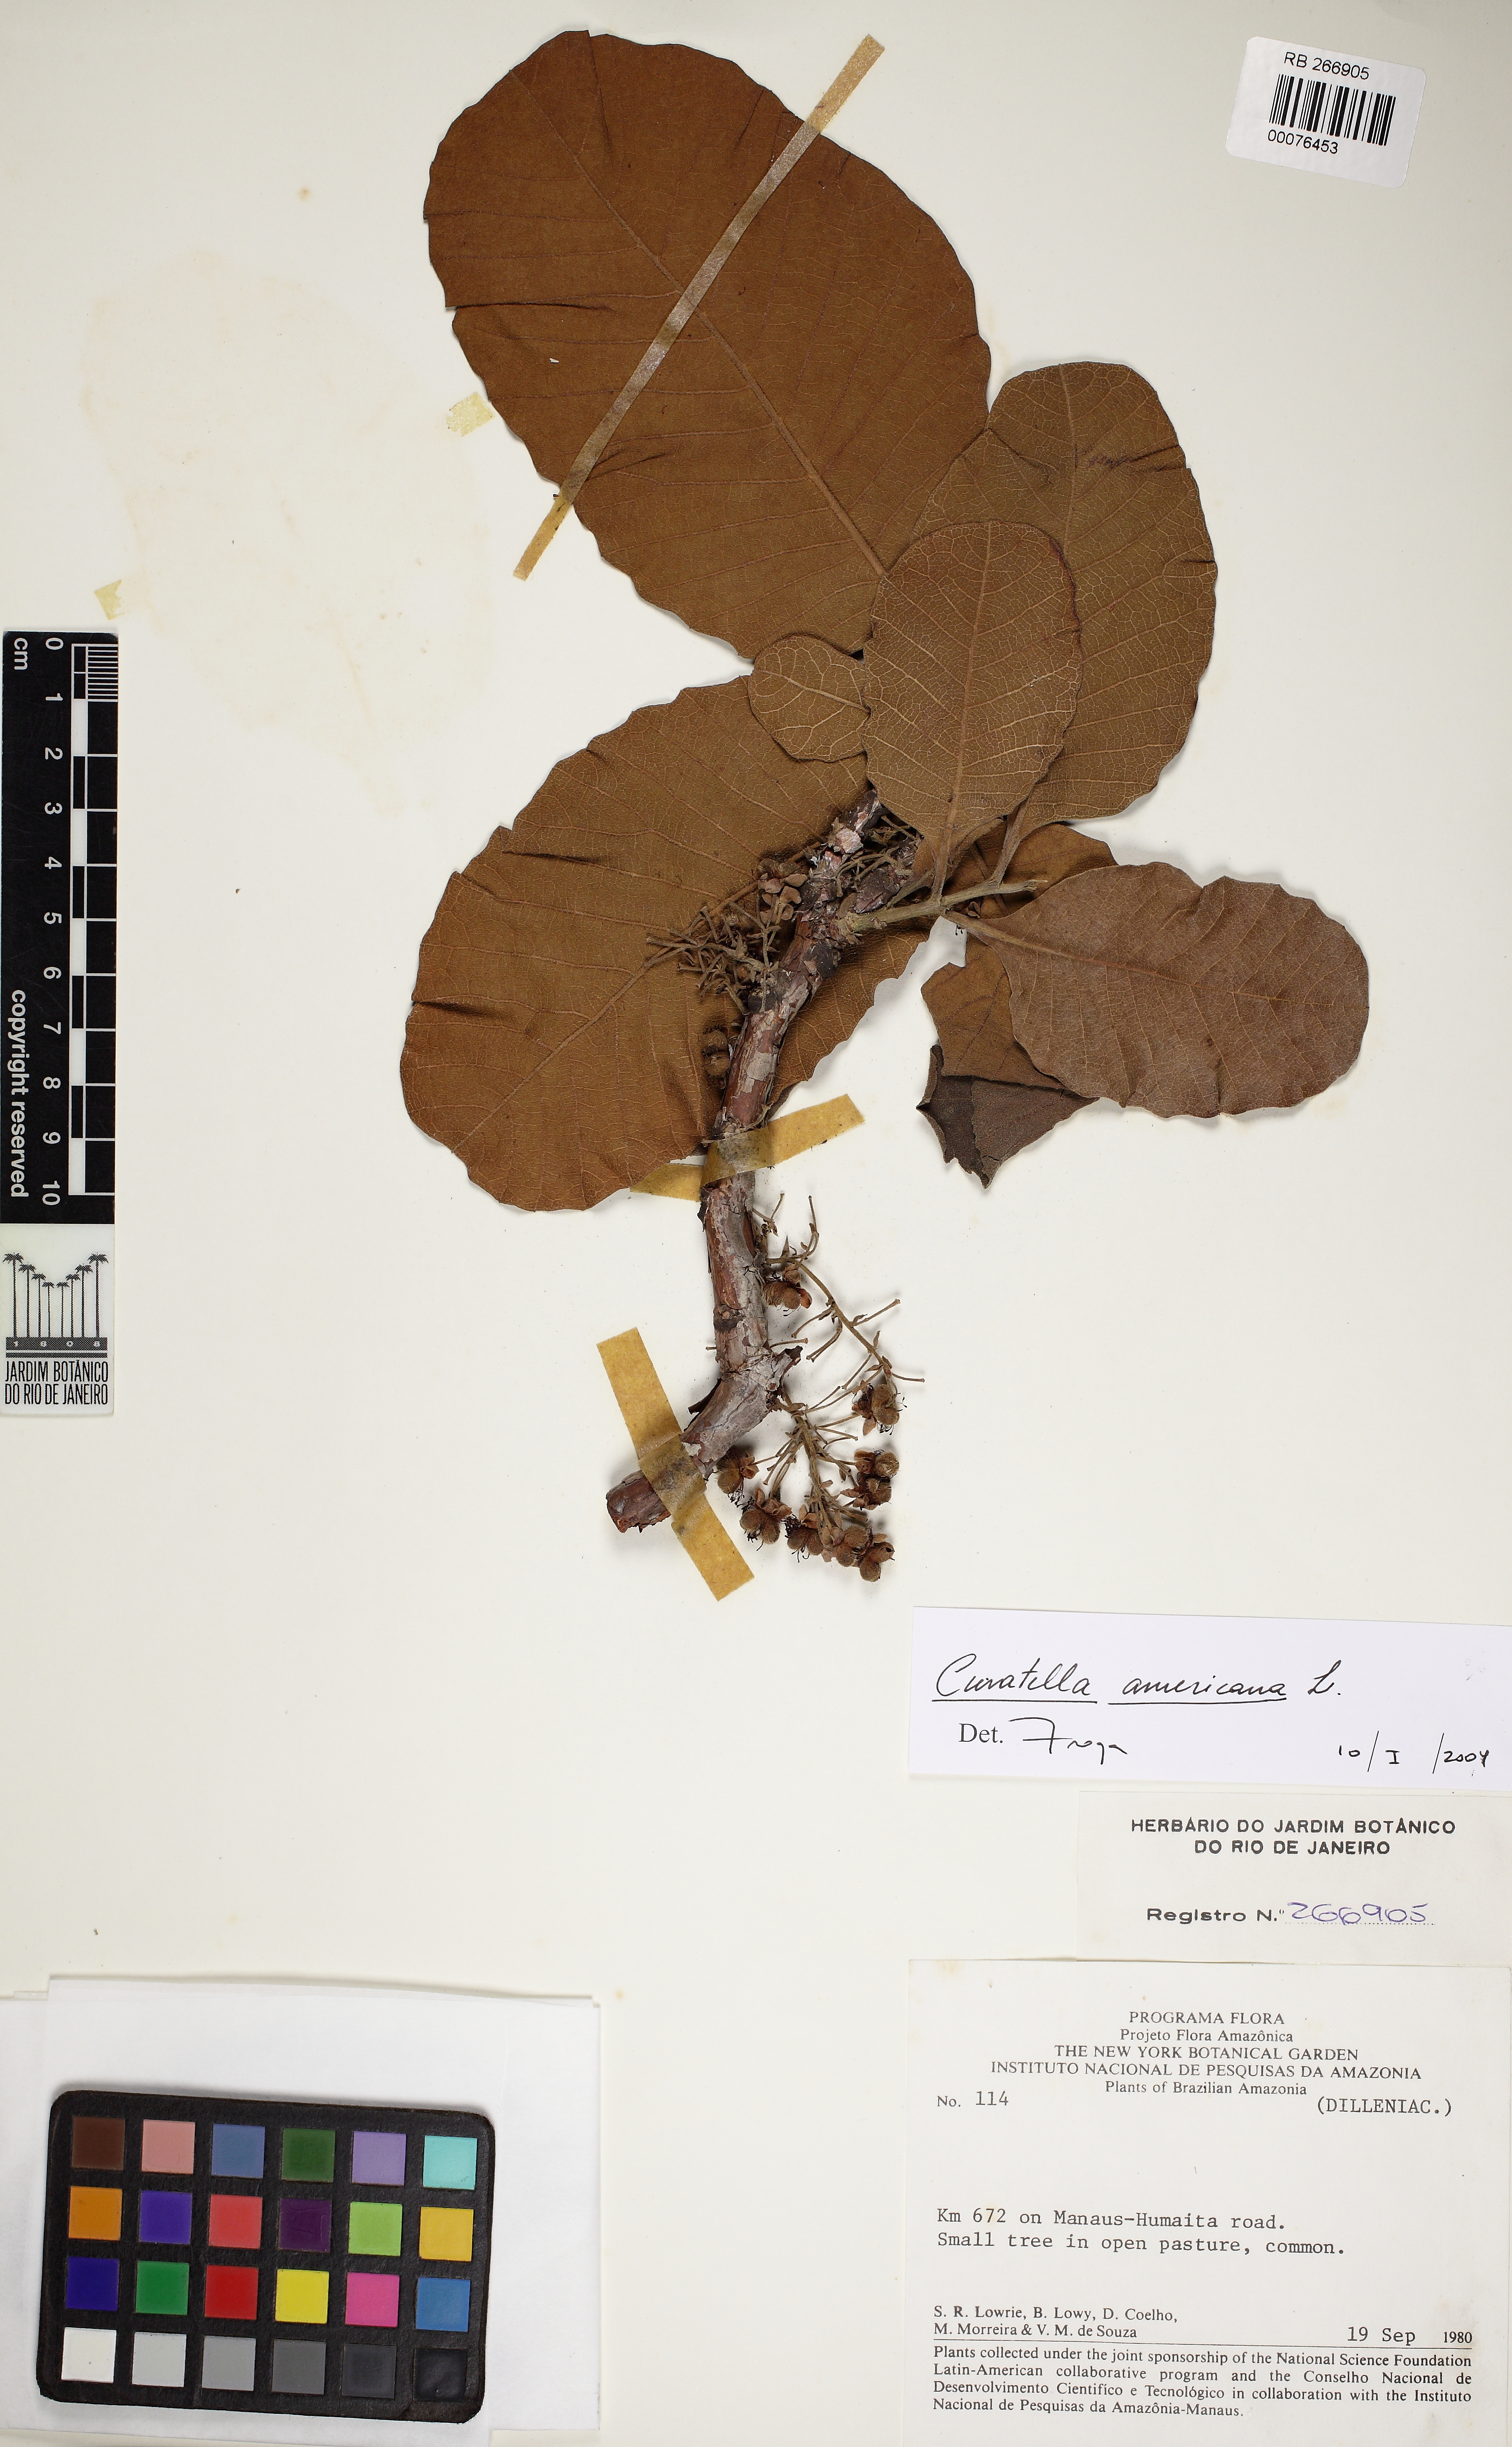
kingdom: Plantae
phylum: Tracheophyta
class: Magnoliopsida
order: Dilleniales
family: Dilleniaceae
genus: Curatella
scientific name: Curatella americana
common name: Sandpaper tree
